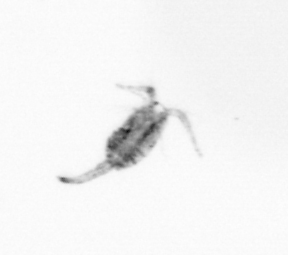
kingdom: Animalia
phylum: Arthropoda
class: Copepoda
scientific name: Copepoda
